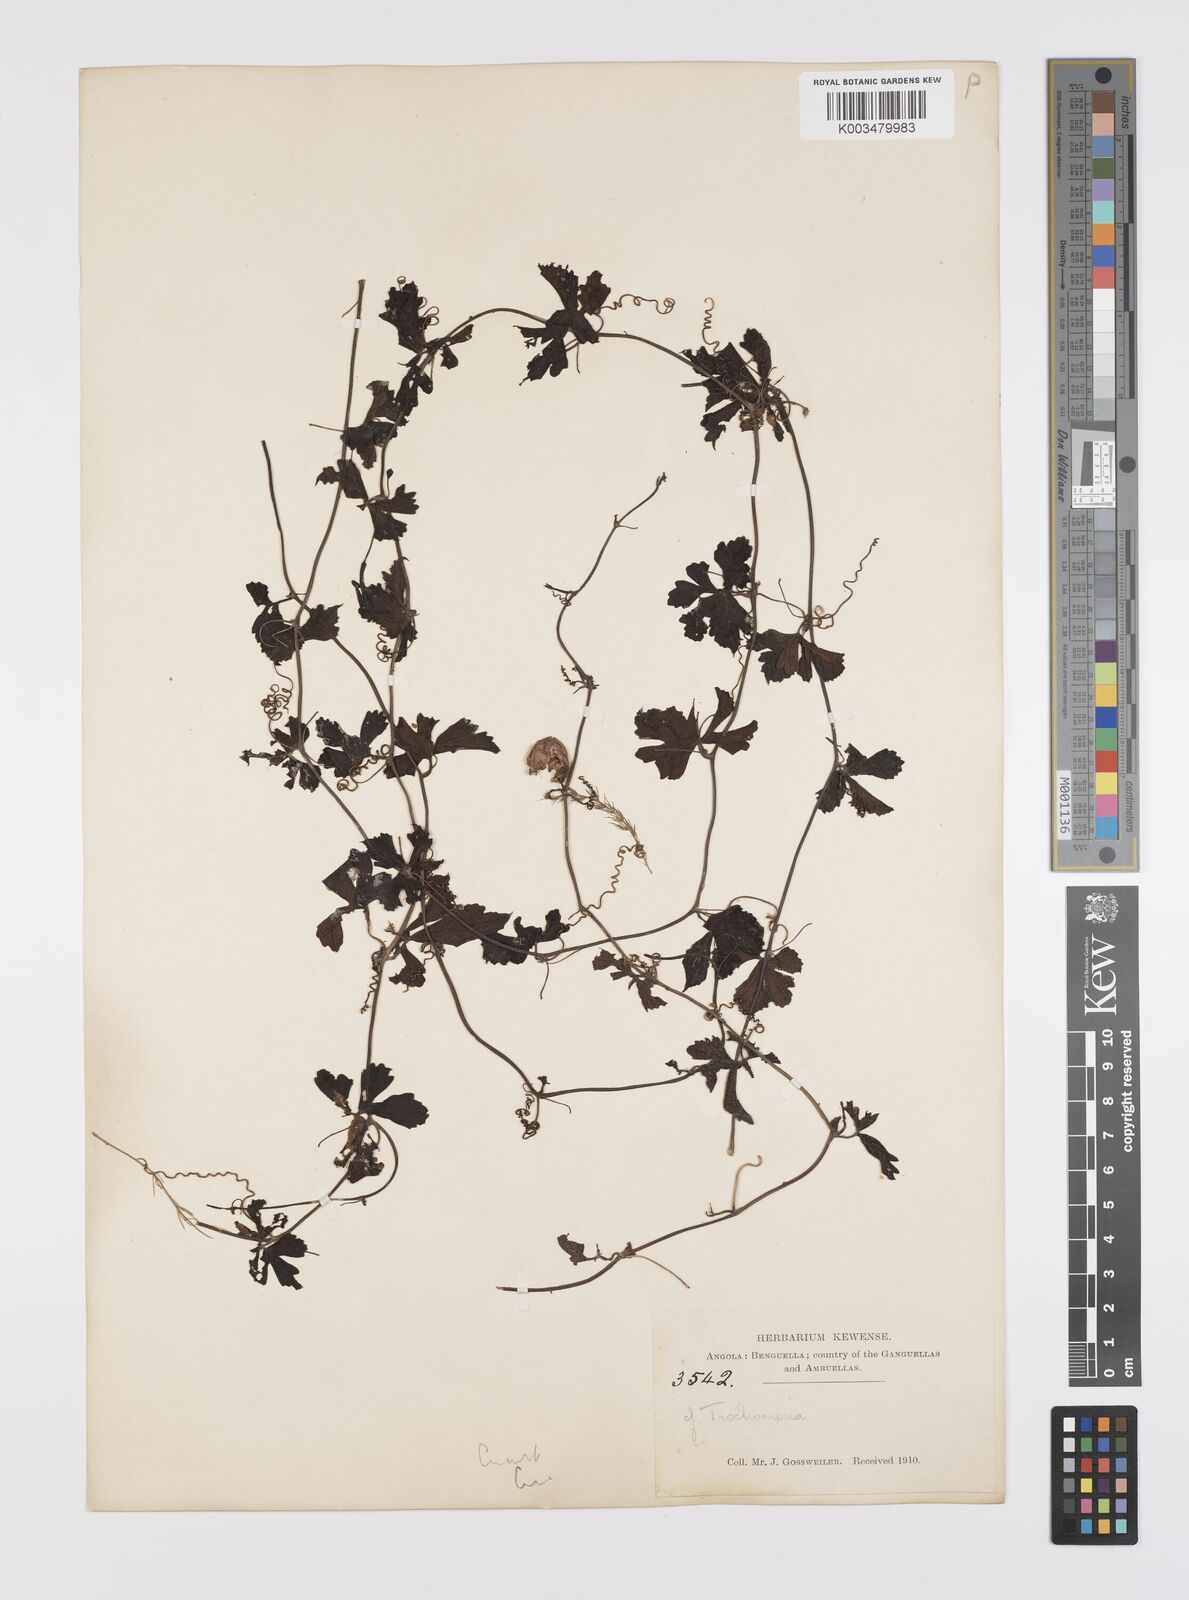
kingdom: Plantae
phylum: Tracheophyta
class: Magnoliopsida
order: Cucurbitales
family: Cucurbitaceae
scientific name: Cucurbitaceae
